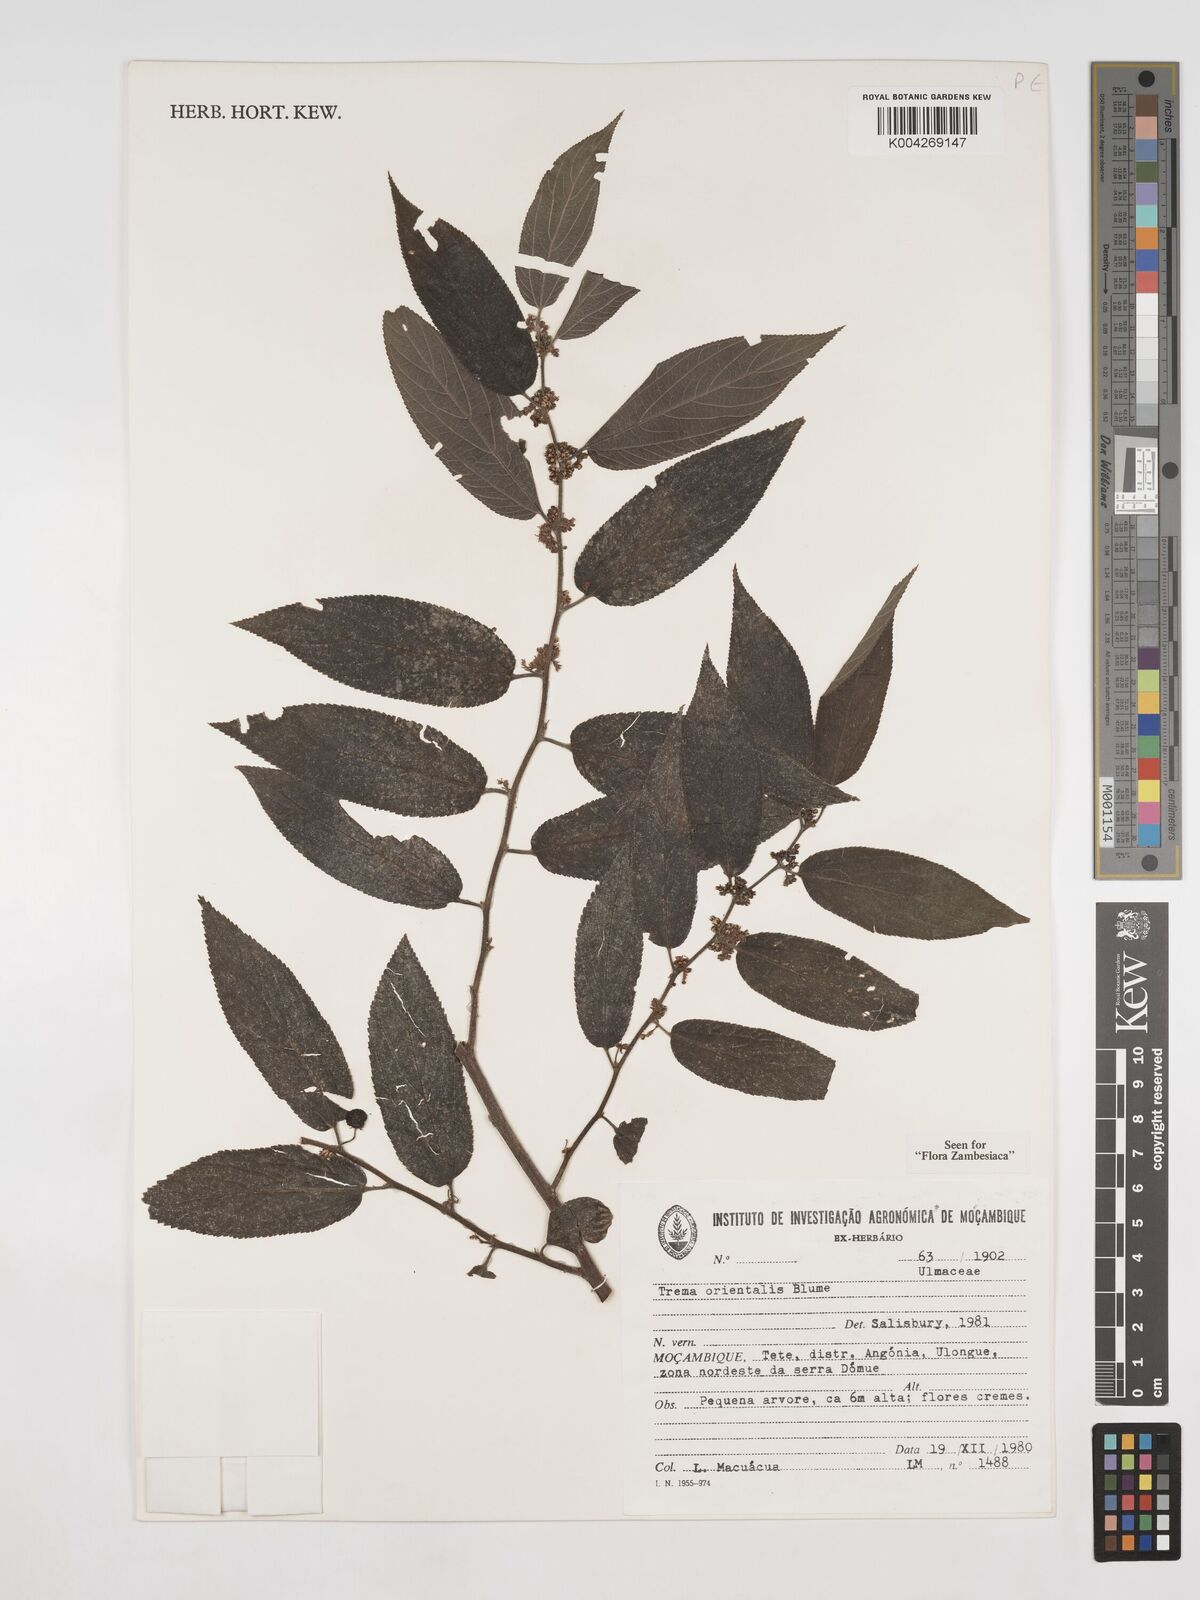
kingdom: Plantae
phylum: Tracheophyta
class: Magnoliopsida
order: Rosales
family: Cannabaceae
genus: Trema
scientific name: Trema orientale
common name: Indian charcoal tree
